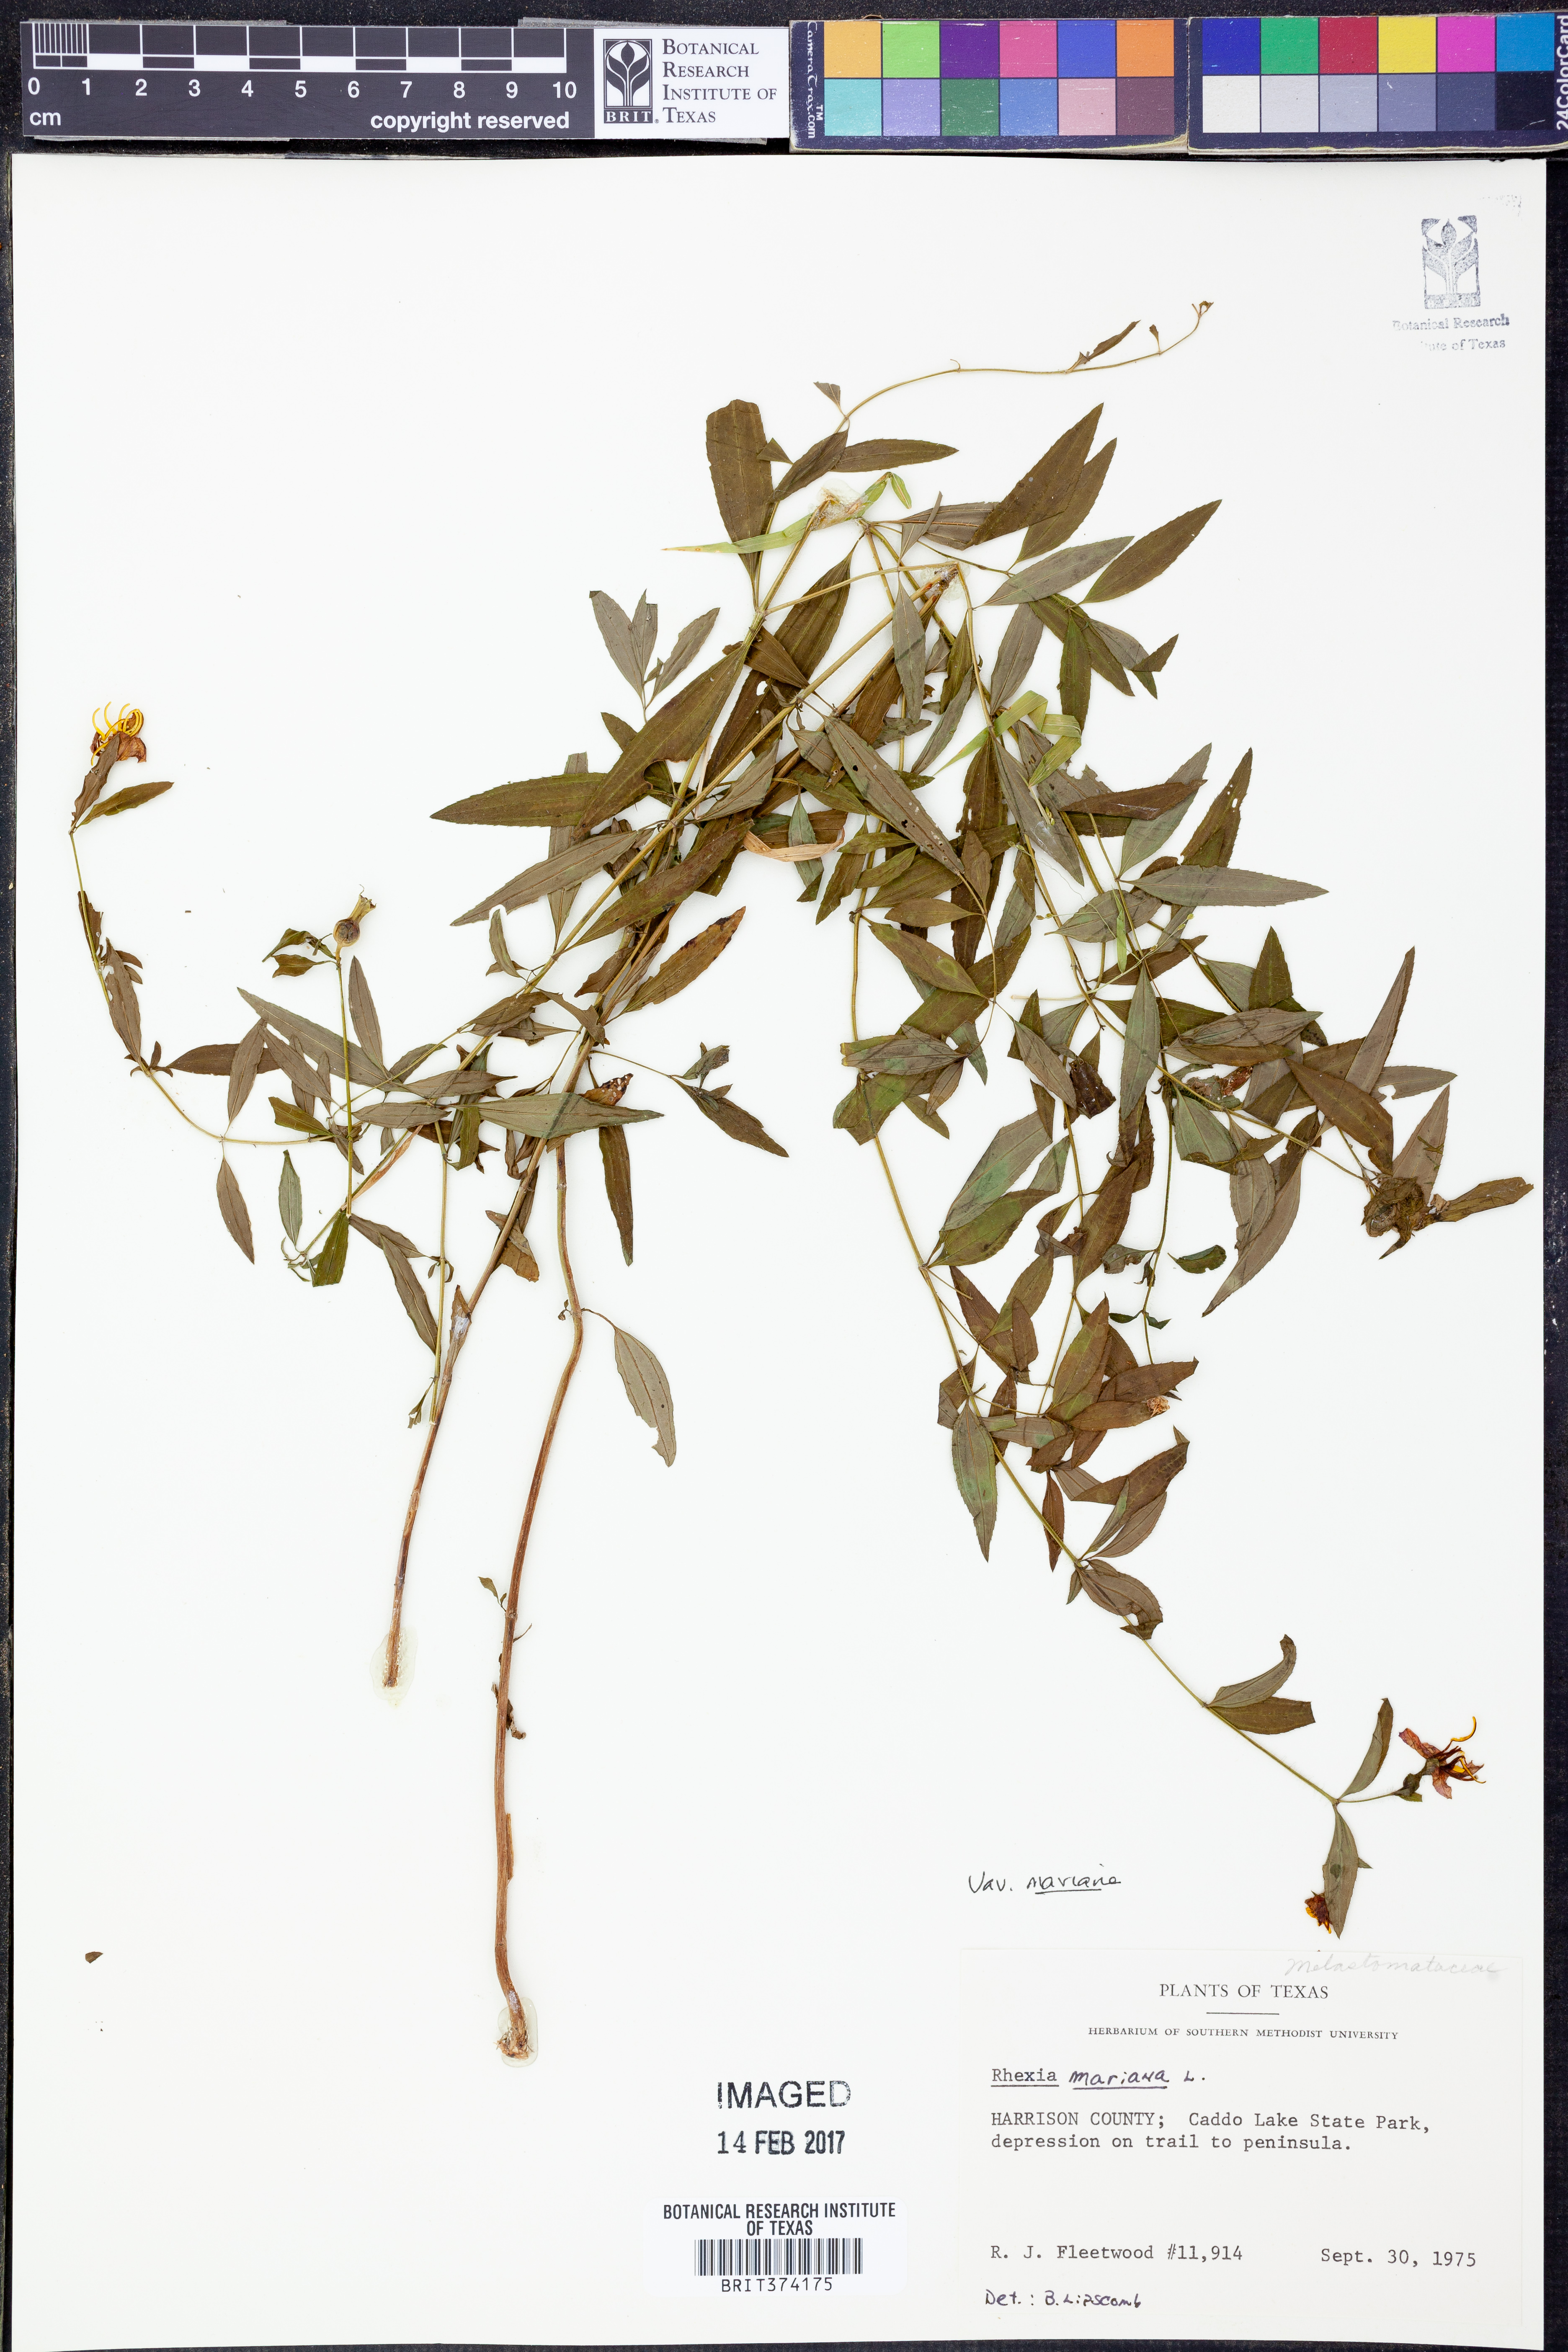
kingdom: Plantae
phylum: Tracheophyta
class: Magnoliopsida
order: Myrtales
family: Melastomataceae
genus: Rhexia
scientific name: Rhexia mariana
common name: Dull meadow-pitcher
